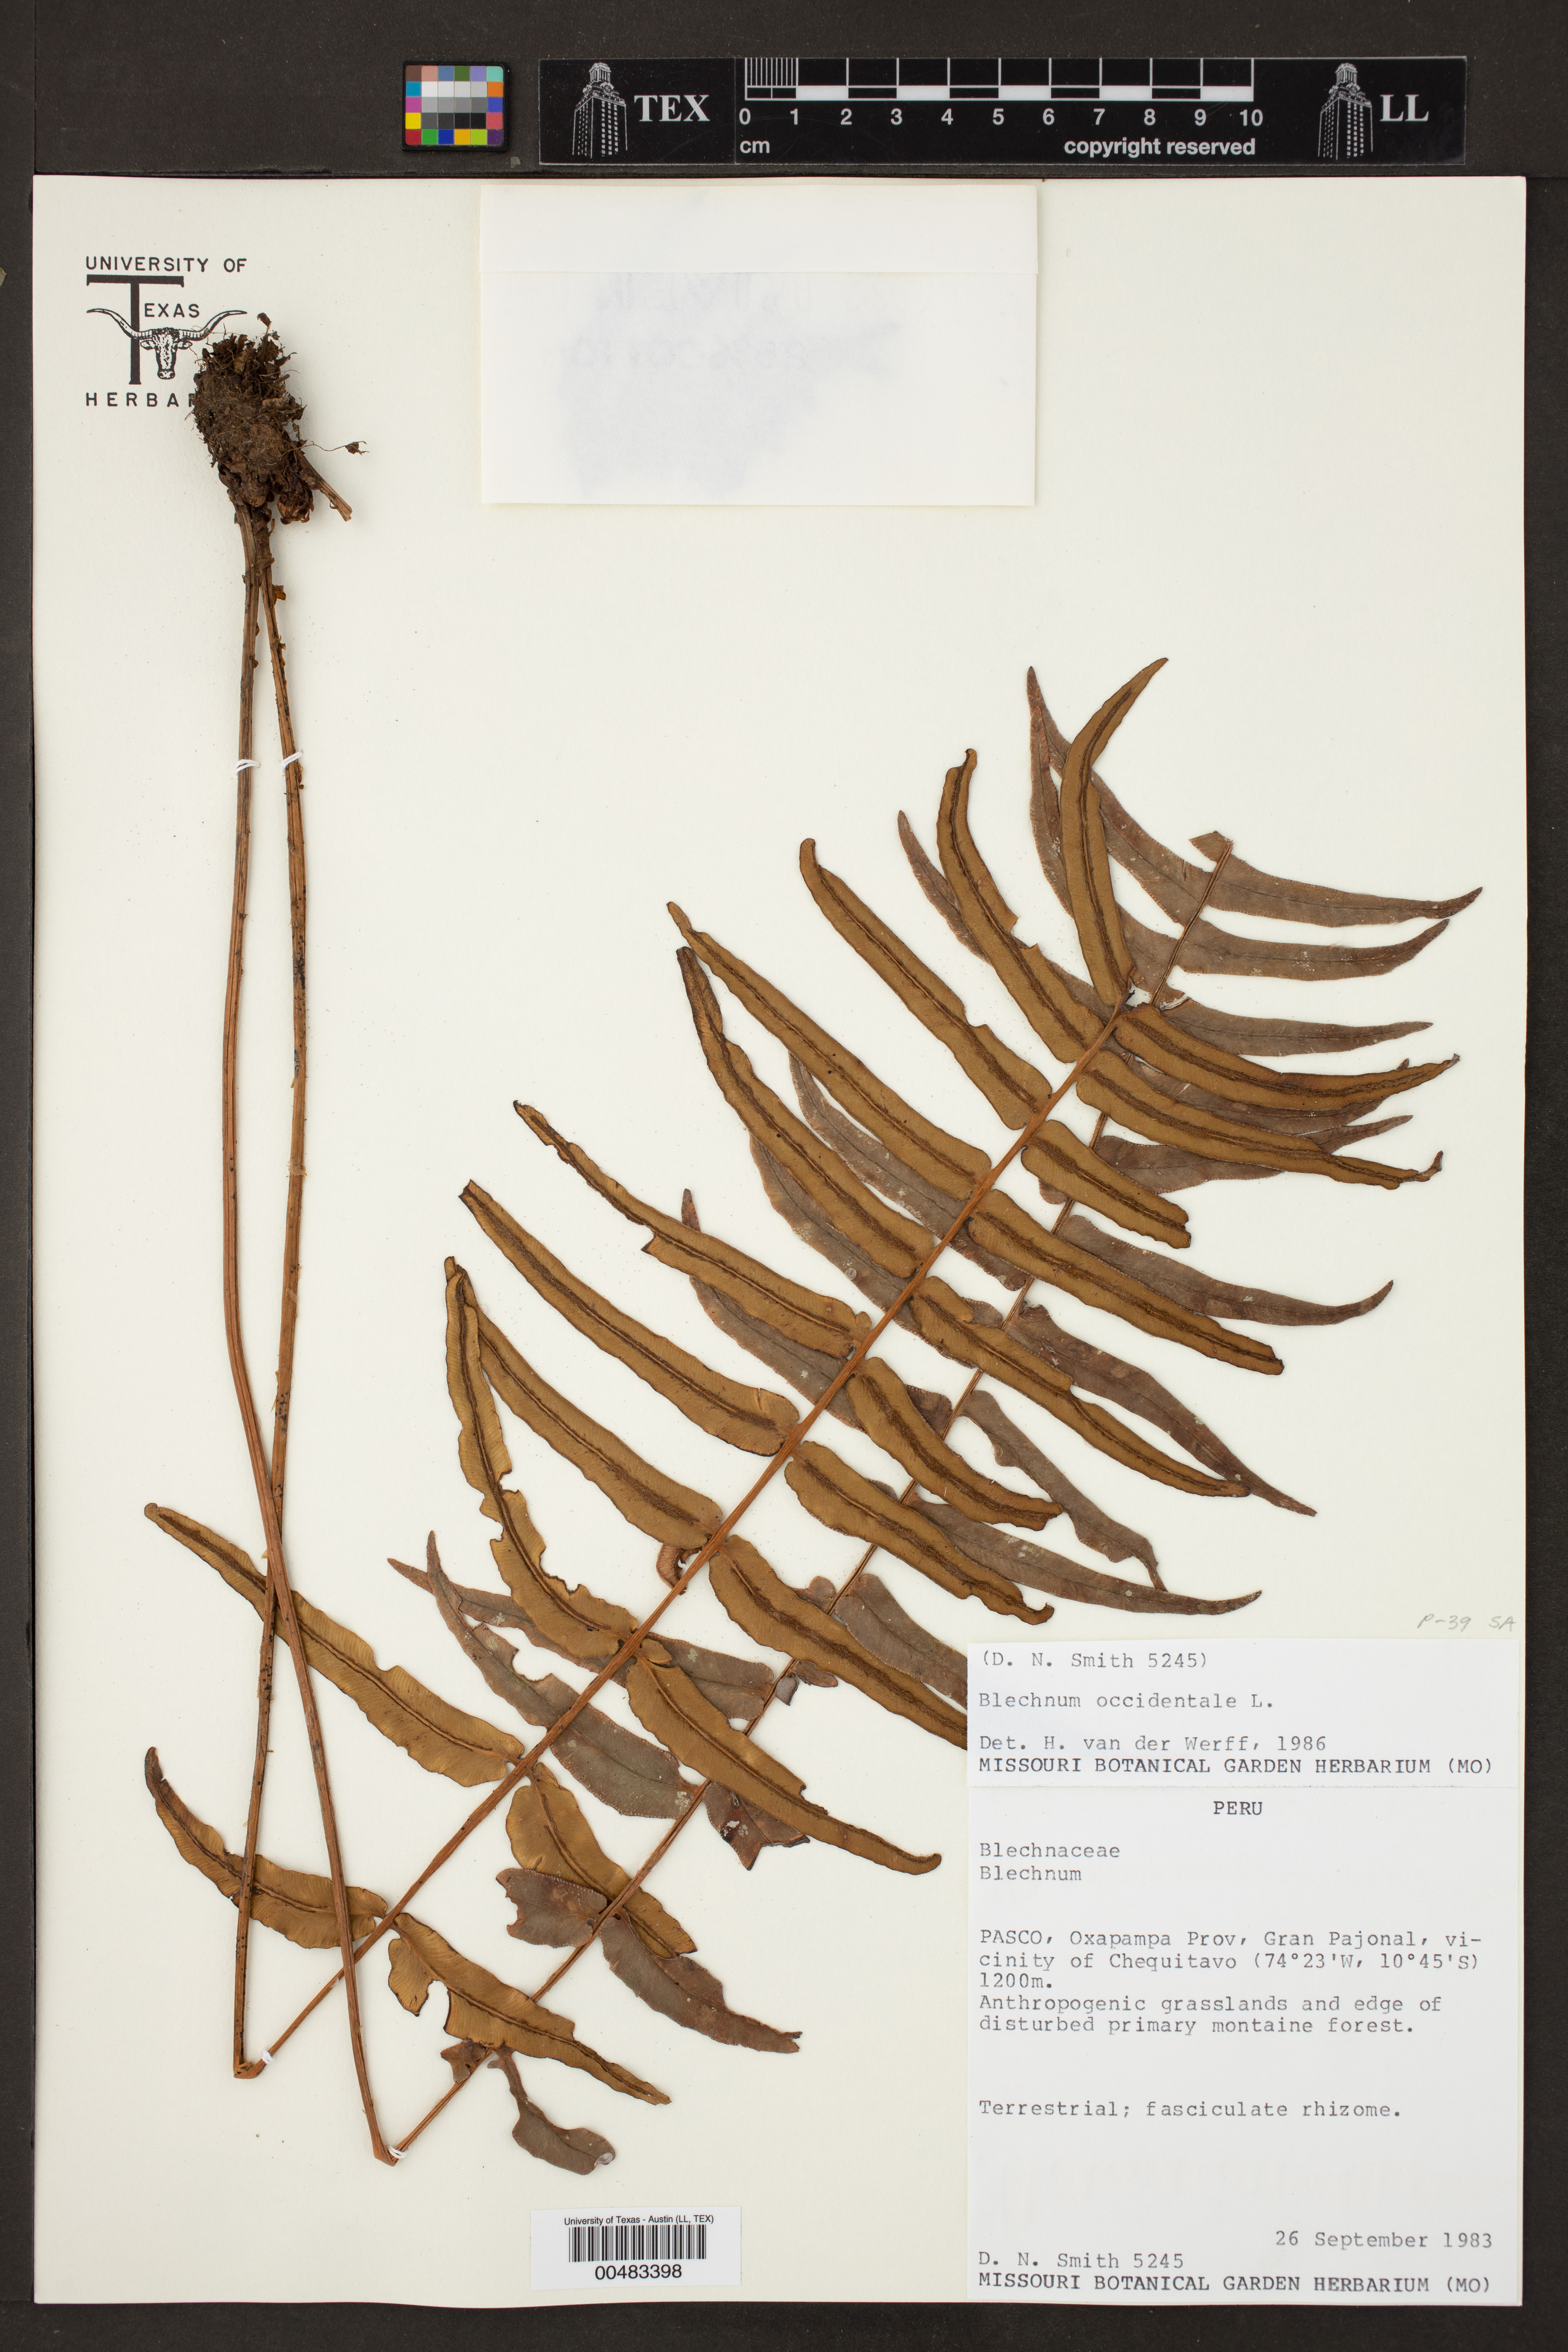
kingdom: Plantae
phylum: Tracheophyta
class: Polypodiopsida
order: Polypodiales
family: Blechnaceae
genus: Blechnum
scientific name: Blechnum occidentale
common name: Hammock fern
